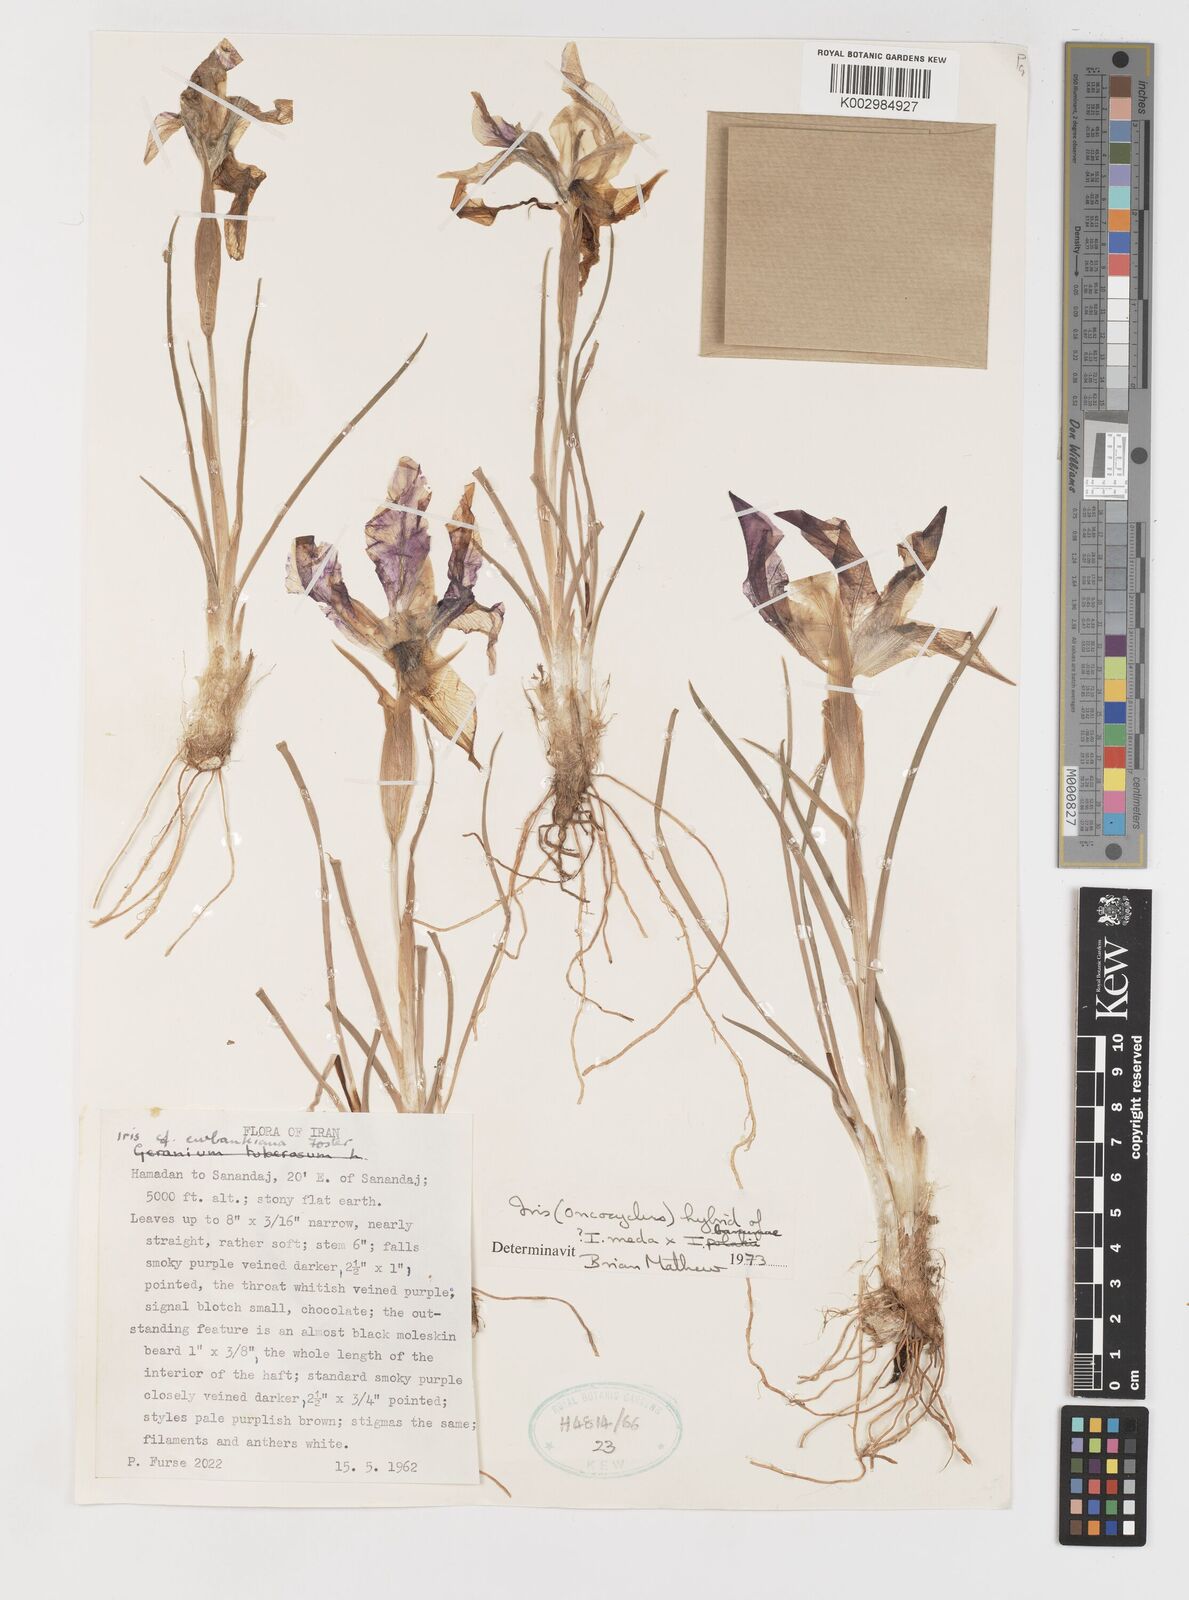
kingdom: Plantae
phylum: Tracheophyta
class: Liliopsida
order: Asparagales
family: Iridaceae
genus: Iris
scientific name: Iris meda
